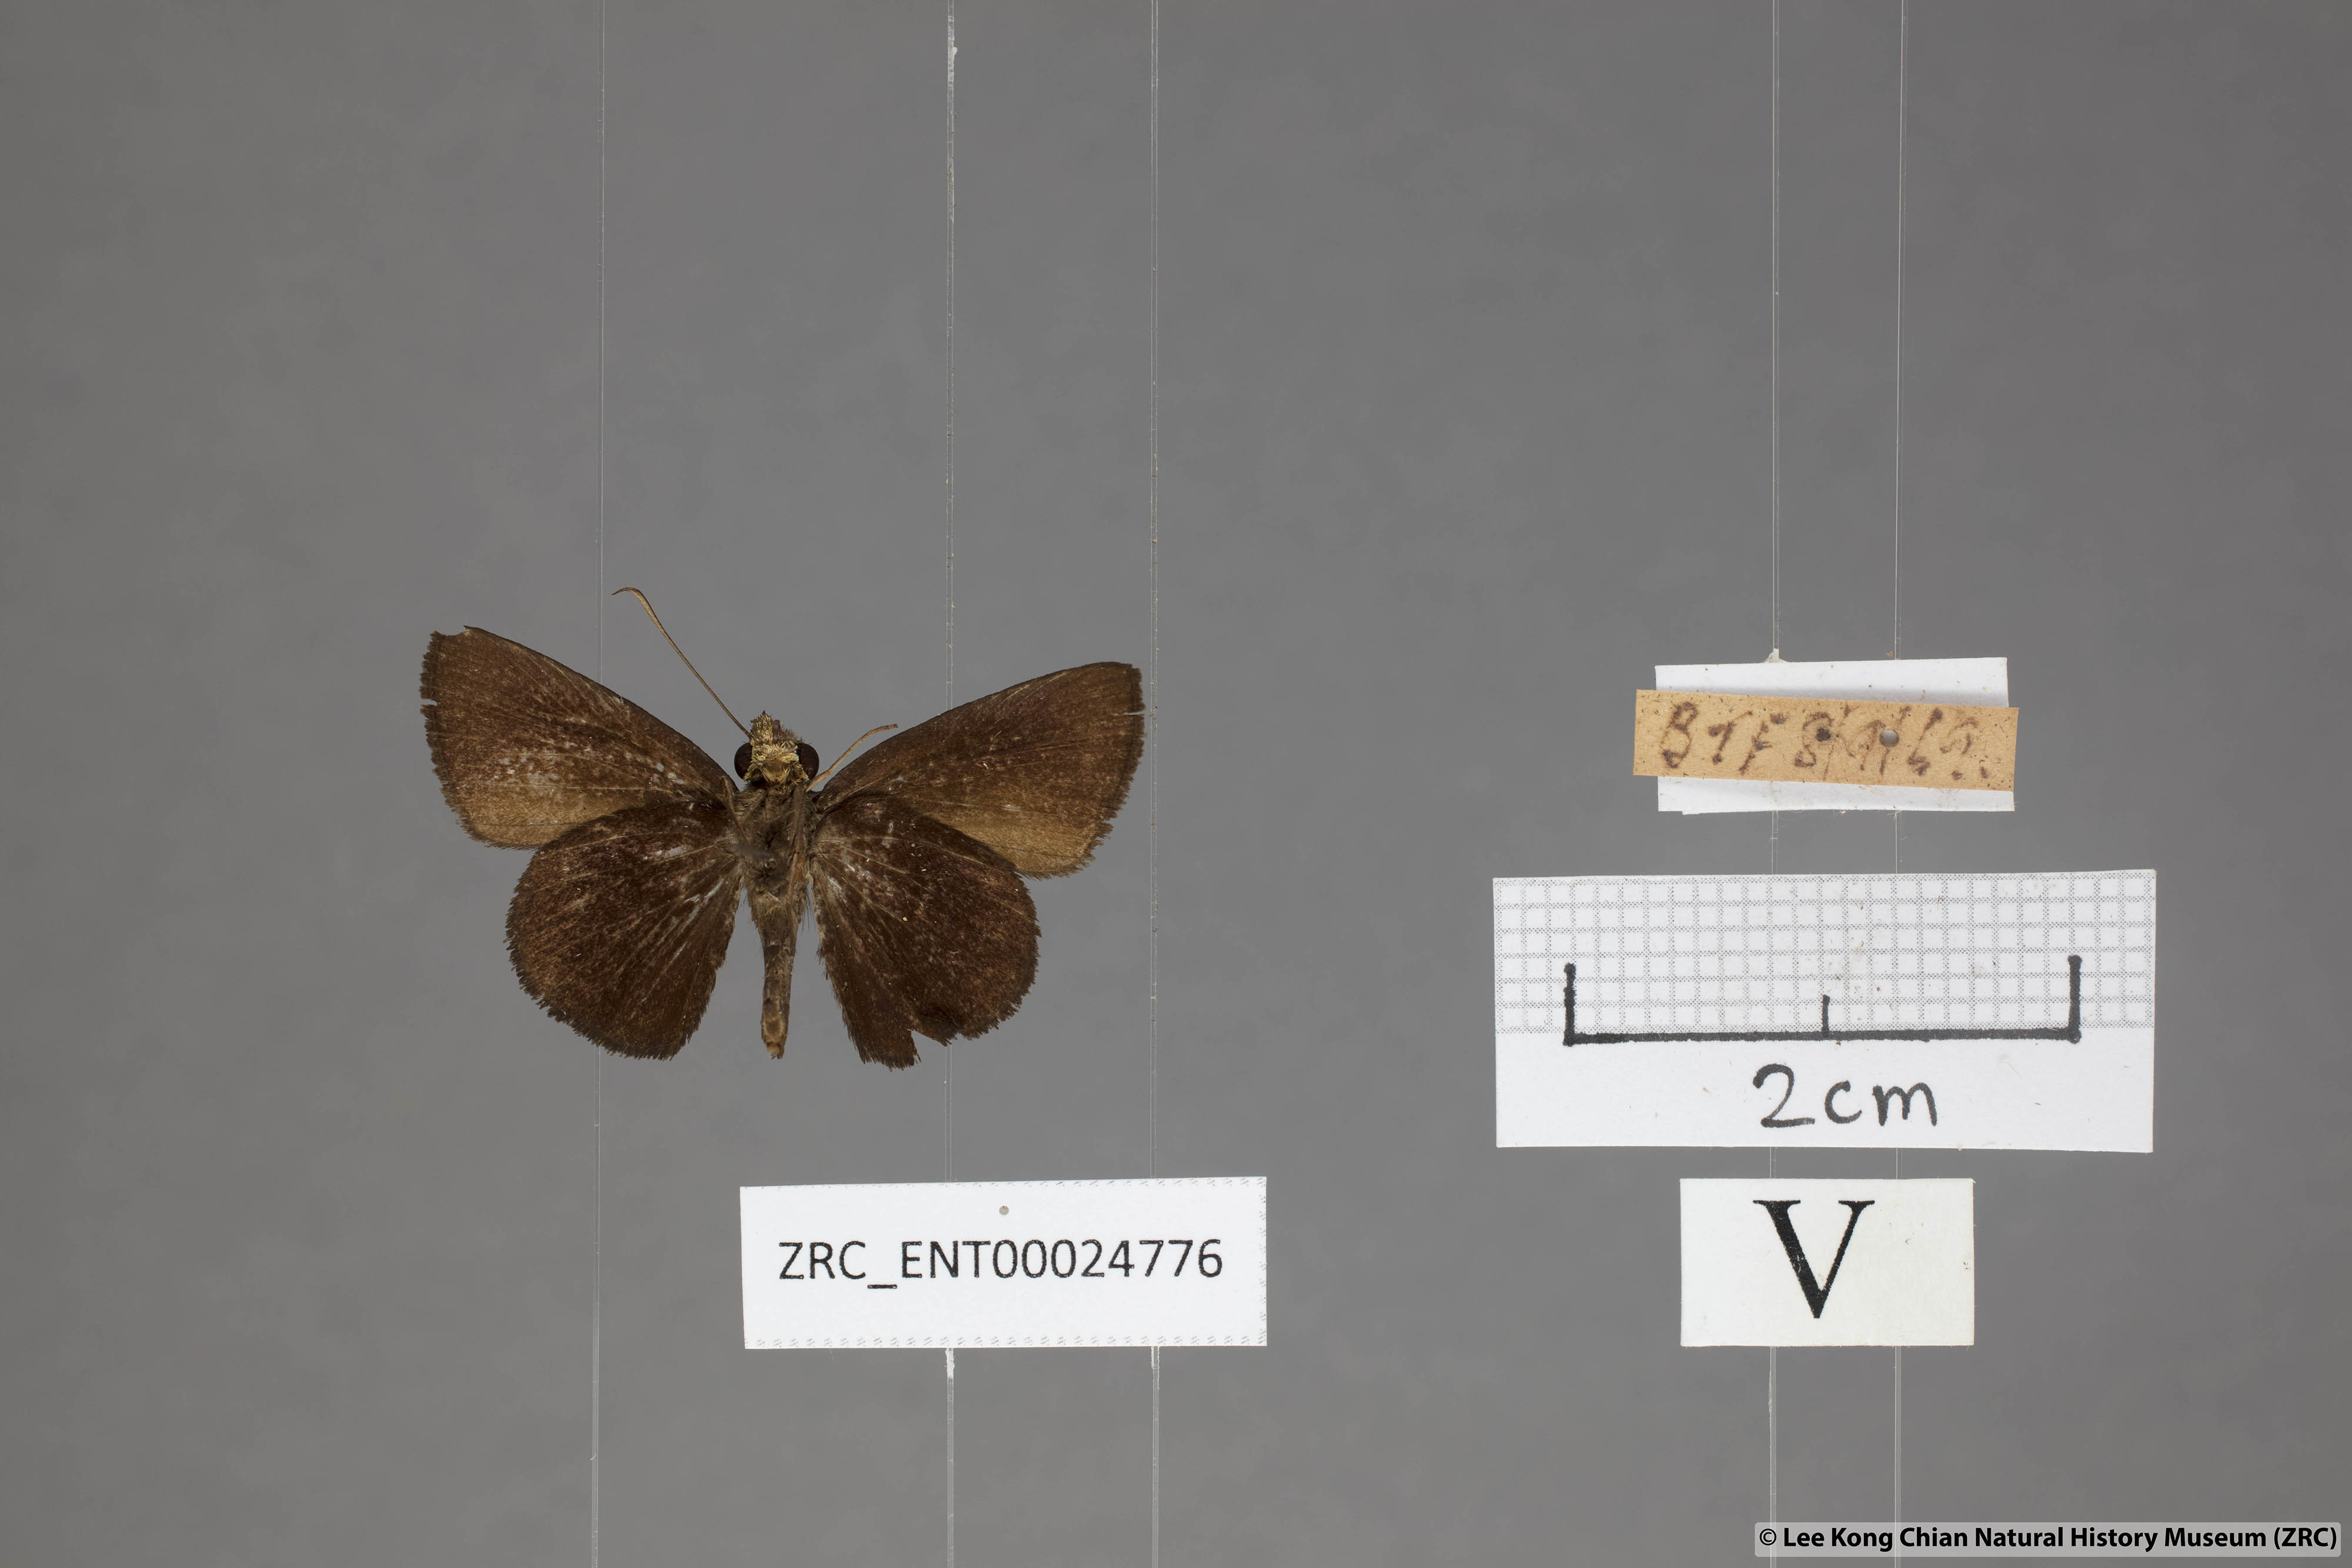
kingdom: Animalia
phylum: Arthropoda
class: Insecta
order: Lepidoptera
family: Hesperiidae
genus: Iambrix
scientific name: Iambrix
